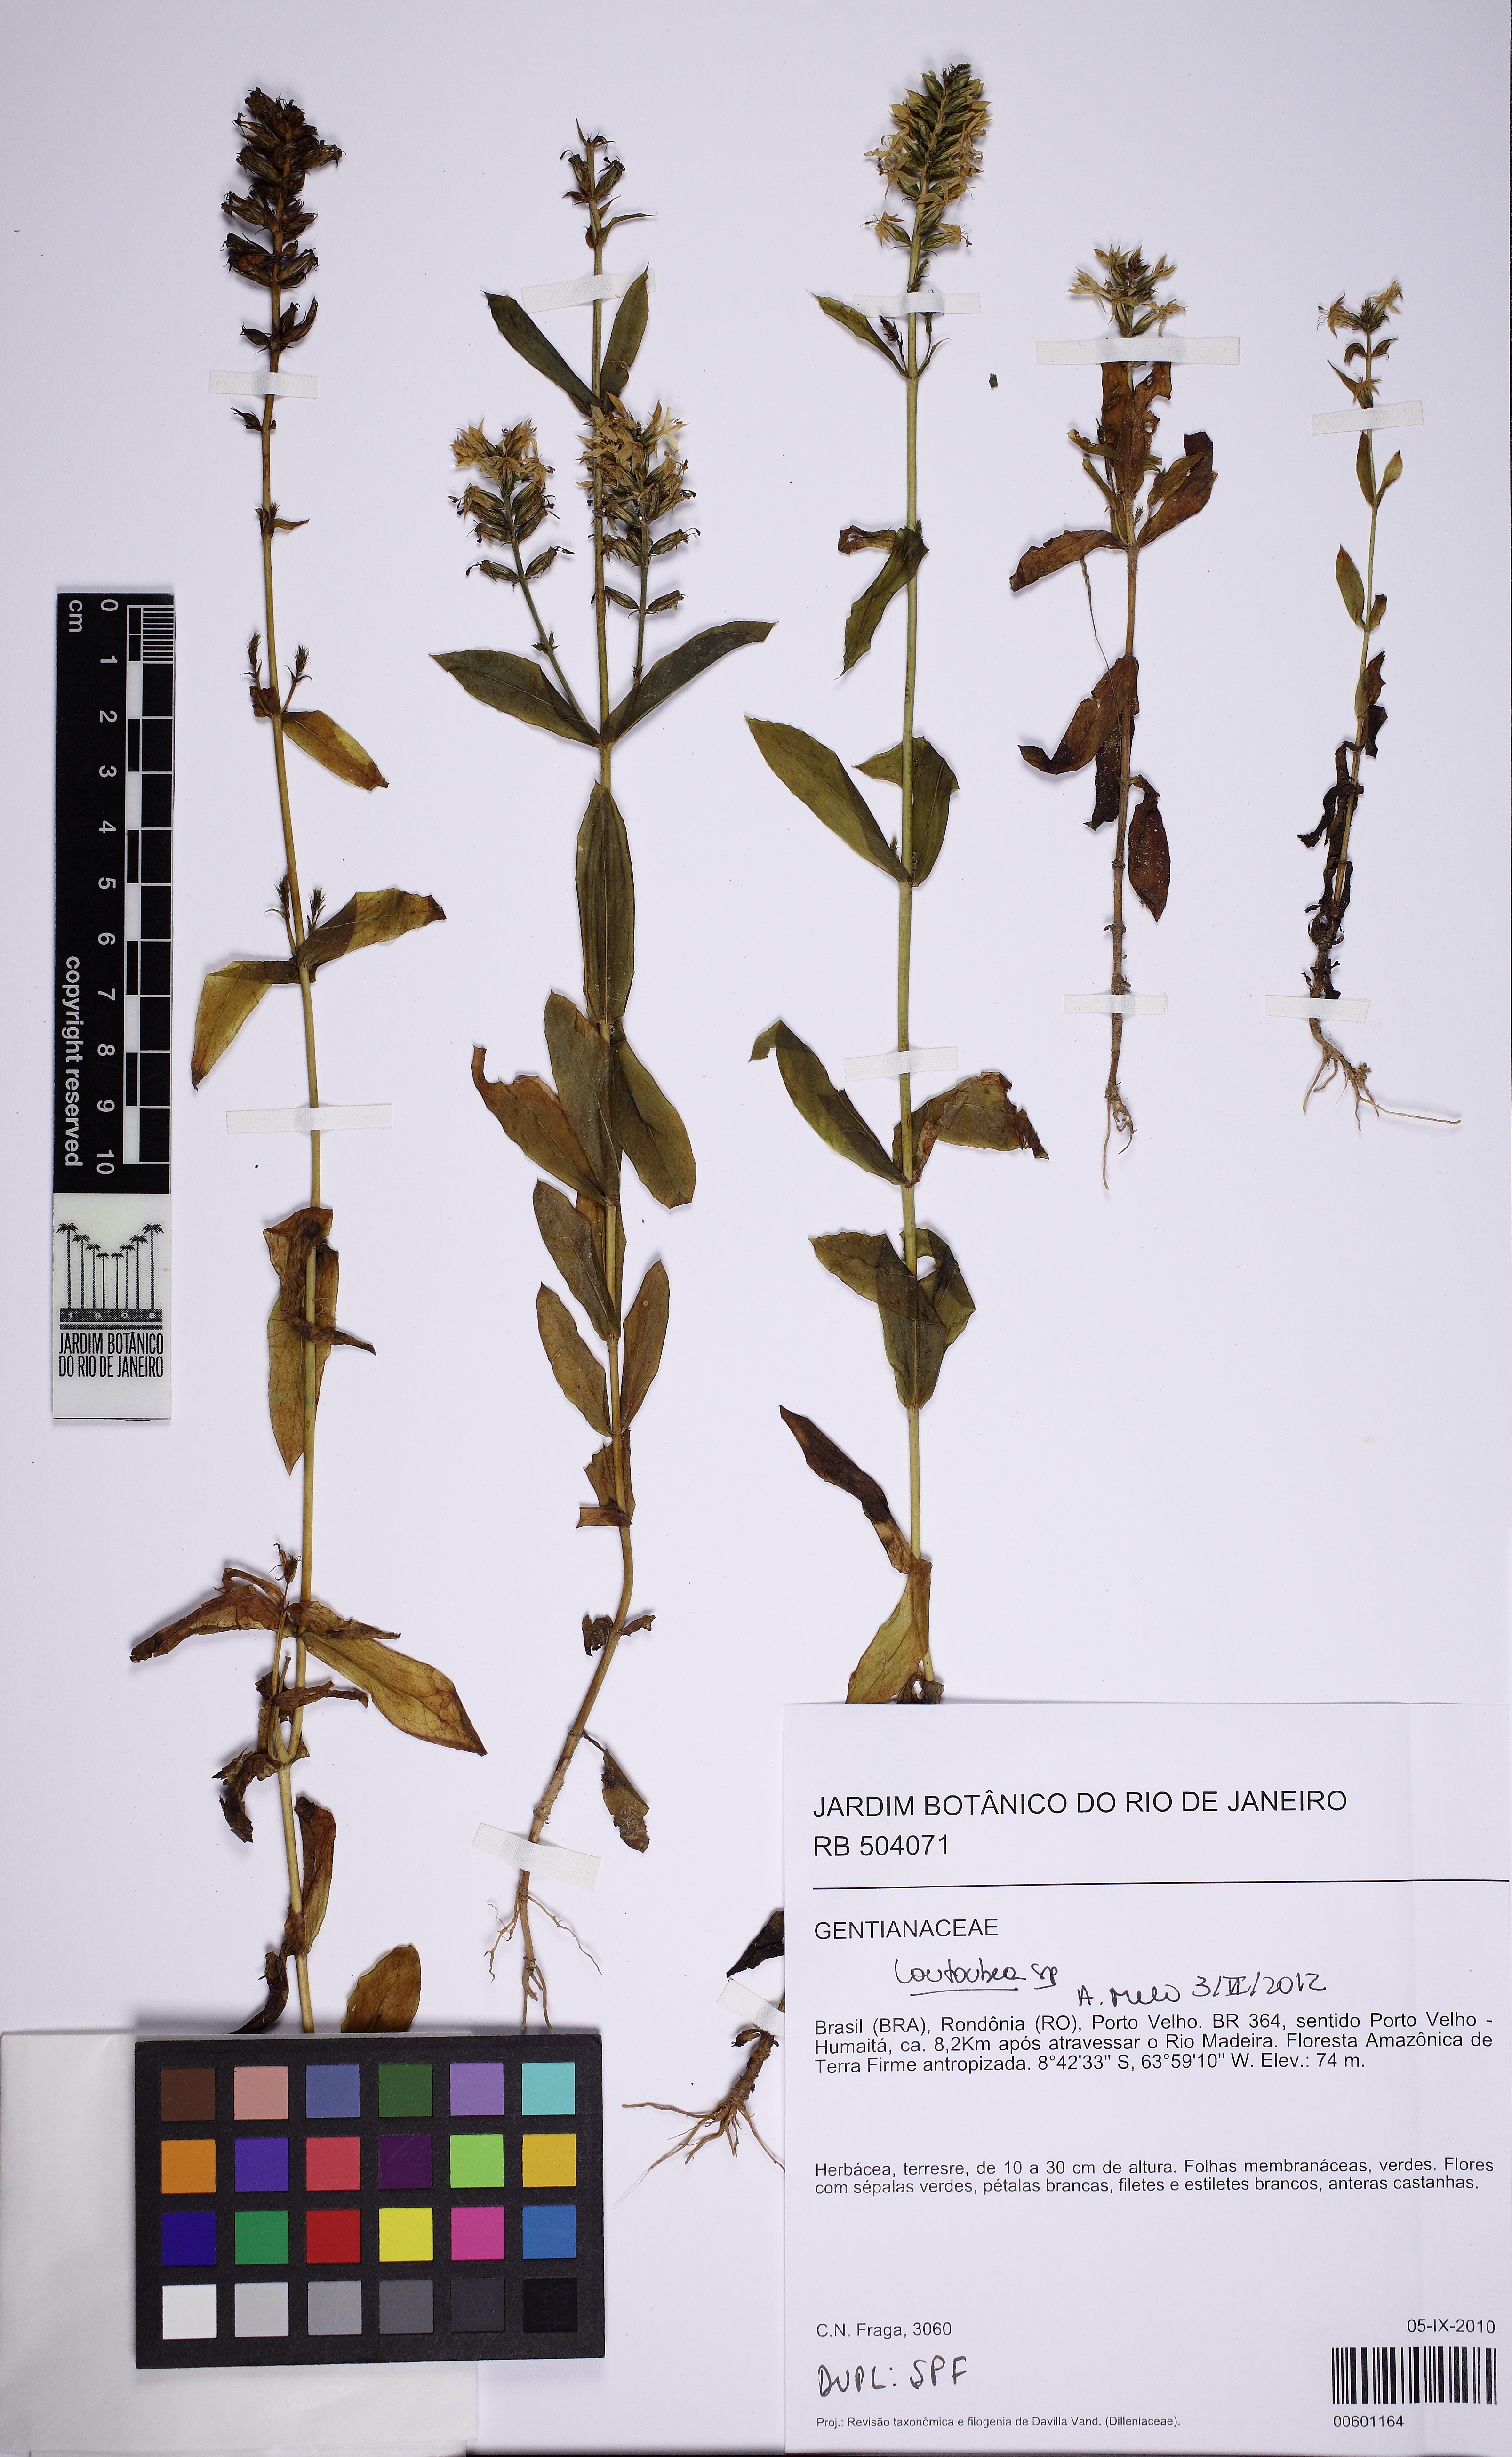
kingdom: Plantae
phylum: Tracheophyta
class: Magnoliopsida
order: Gentianales
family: Gentianaceae
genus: Coutoubea
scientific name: Coutoubea
